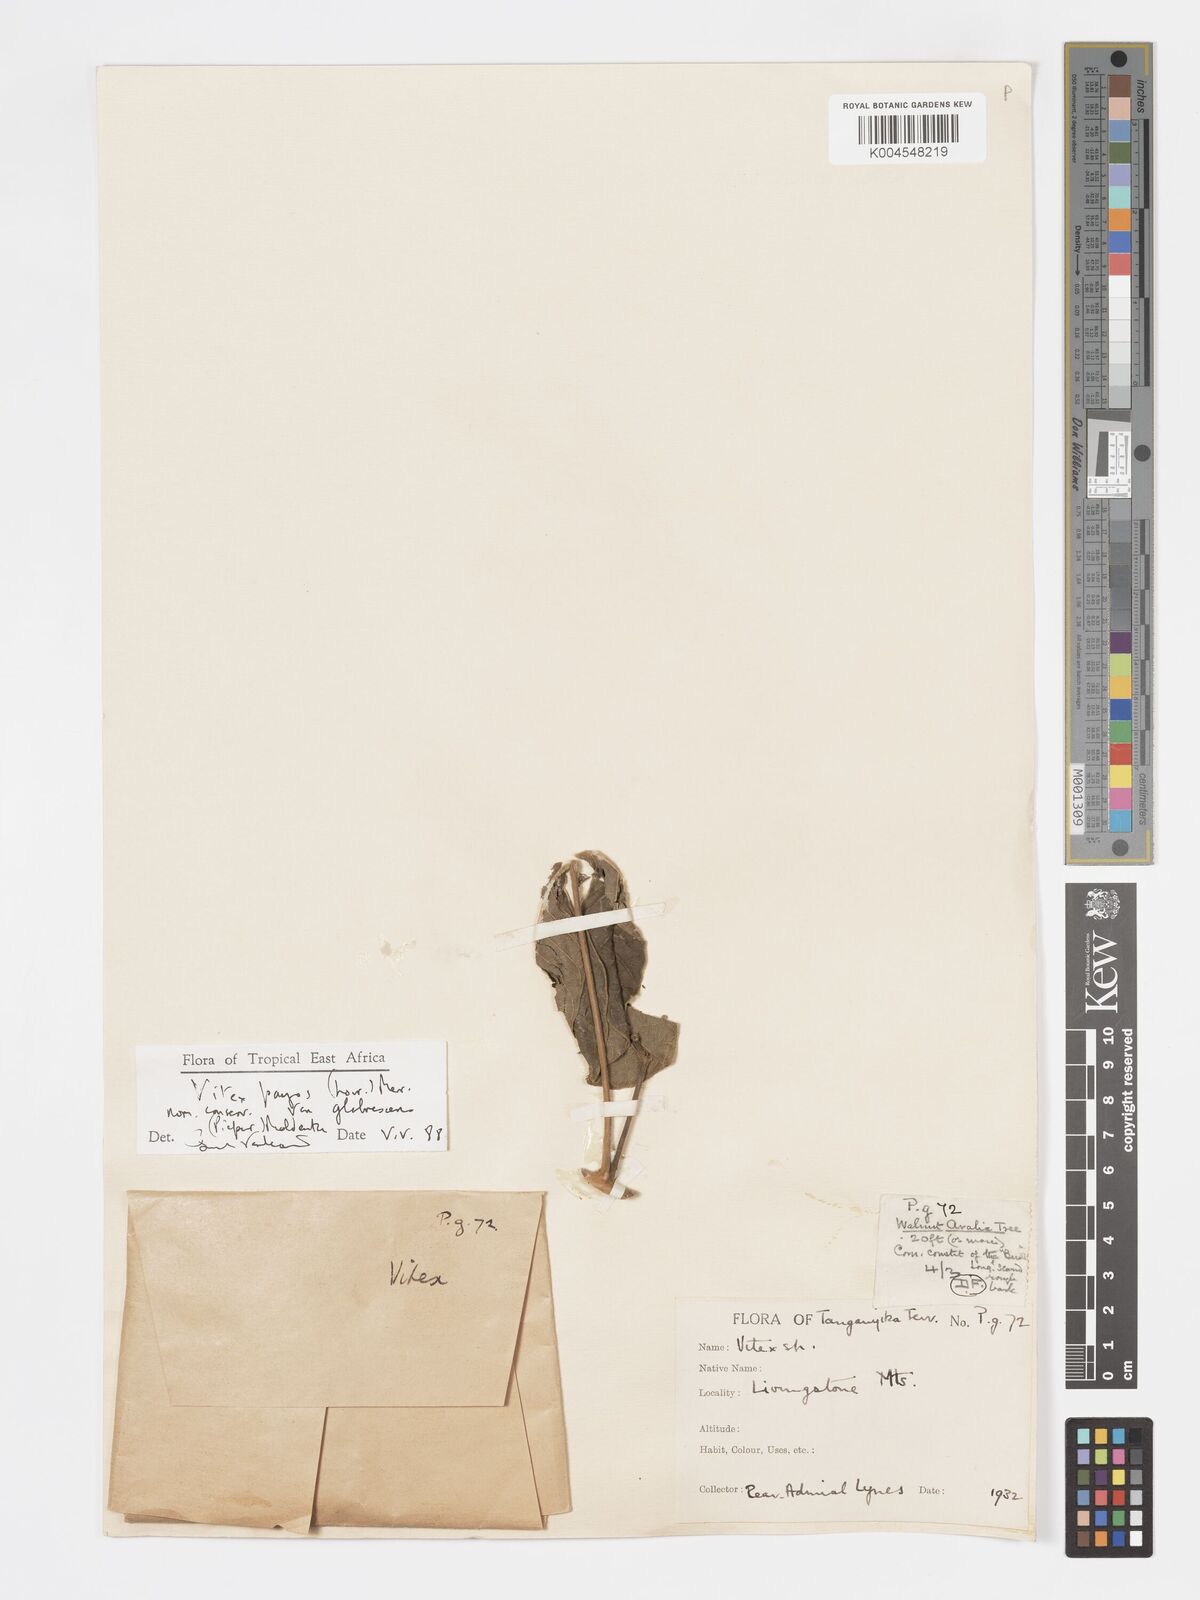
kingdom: Plantae
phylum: Tracheophyta
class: Magnoliopsida
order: Lamiales
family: Lamiaceae
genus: Vitex
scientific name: Vitex payos
